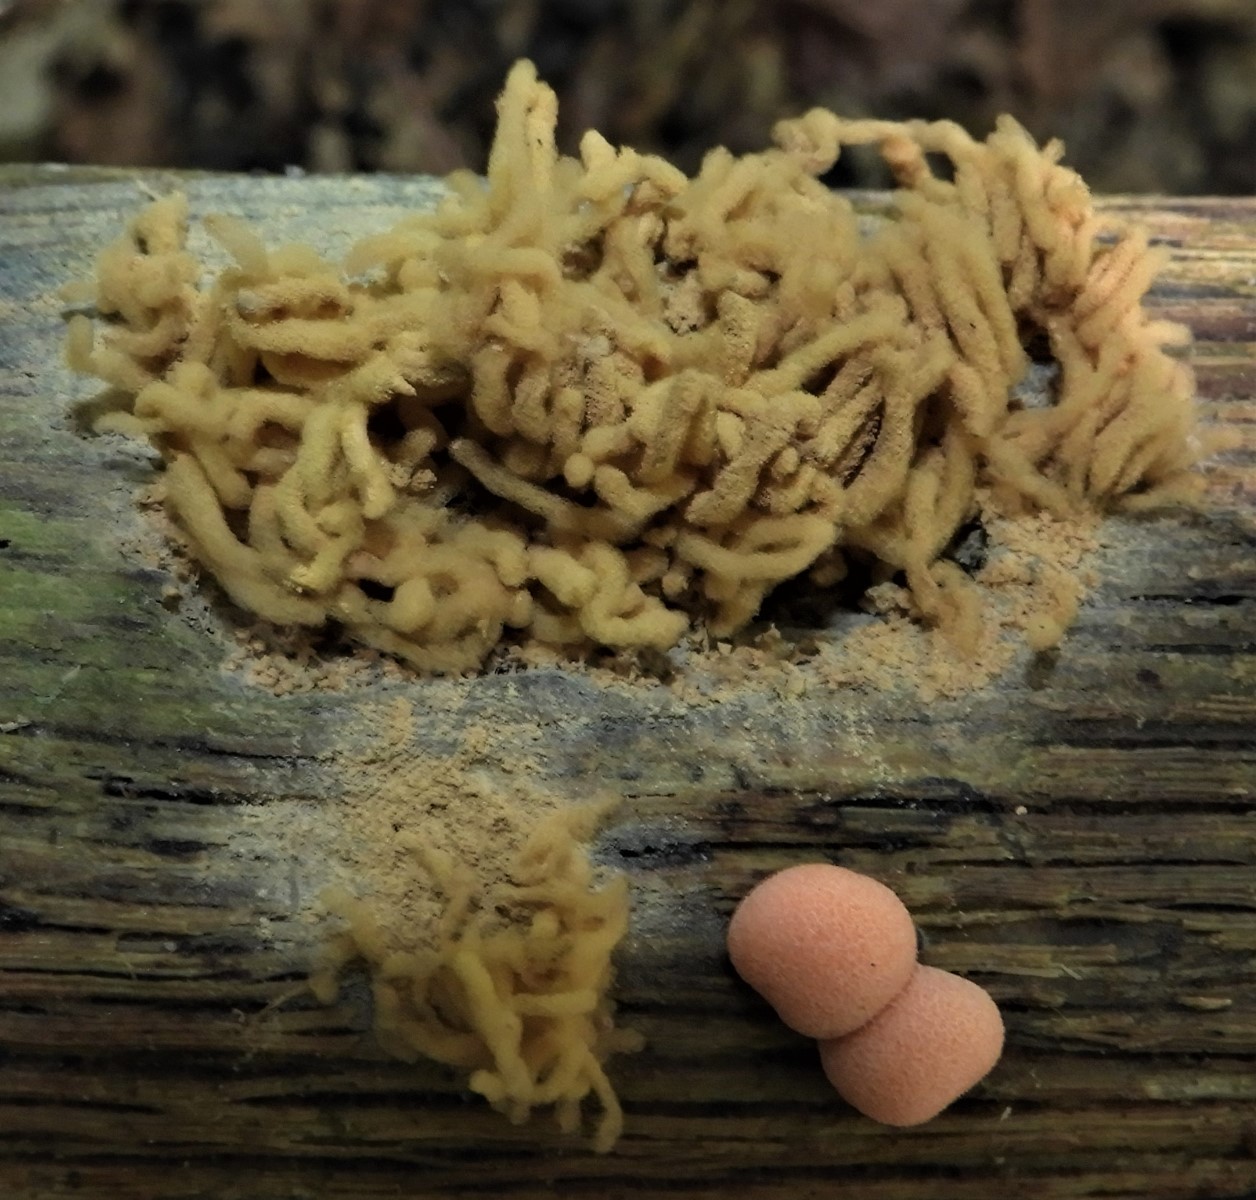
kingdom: Protozoa
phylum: Mycetozoa
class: Myxomycetes
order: Trichiales
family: Arcyriaceae
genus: Arcyria
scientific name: Arcyria obvelata
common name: okkergul skålsvøb
